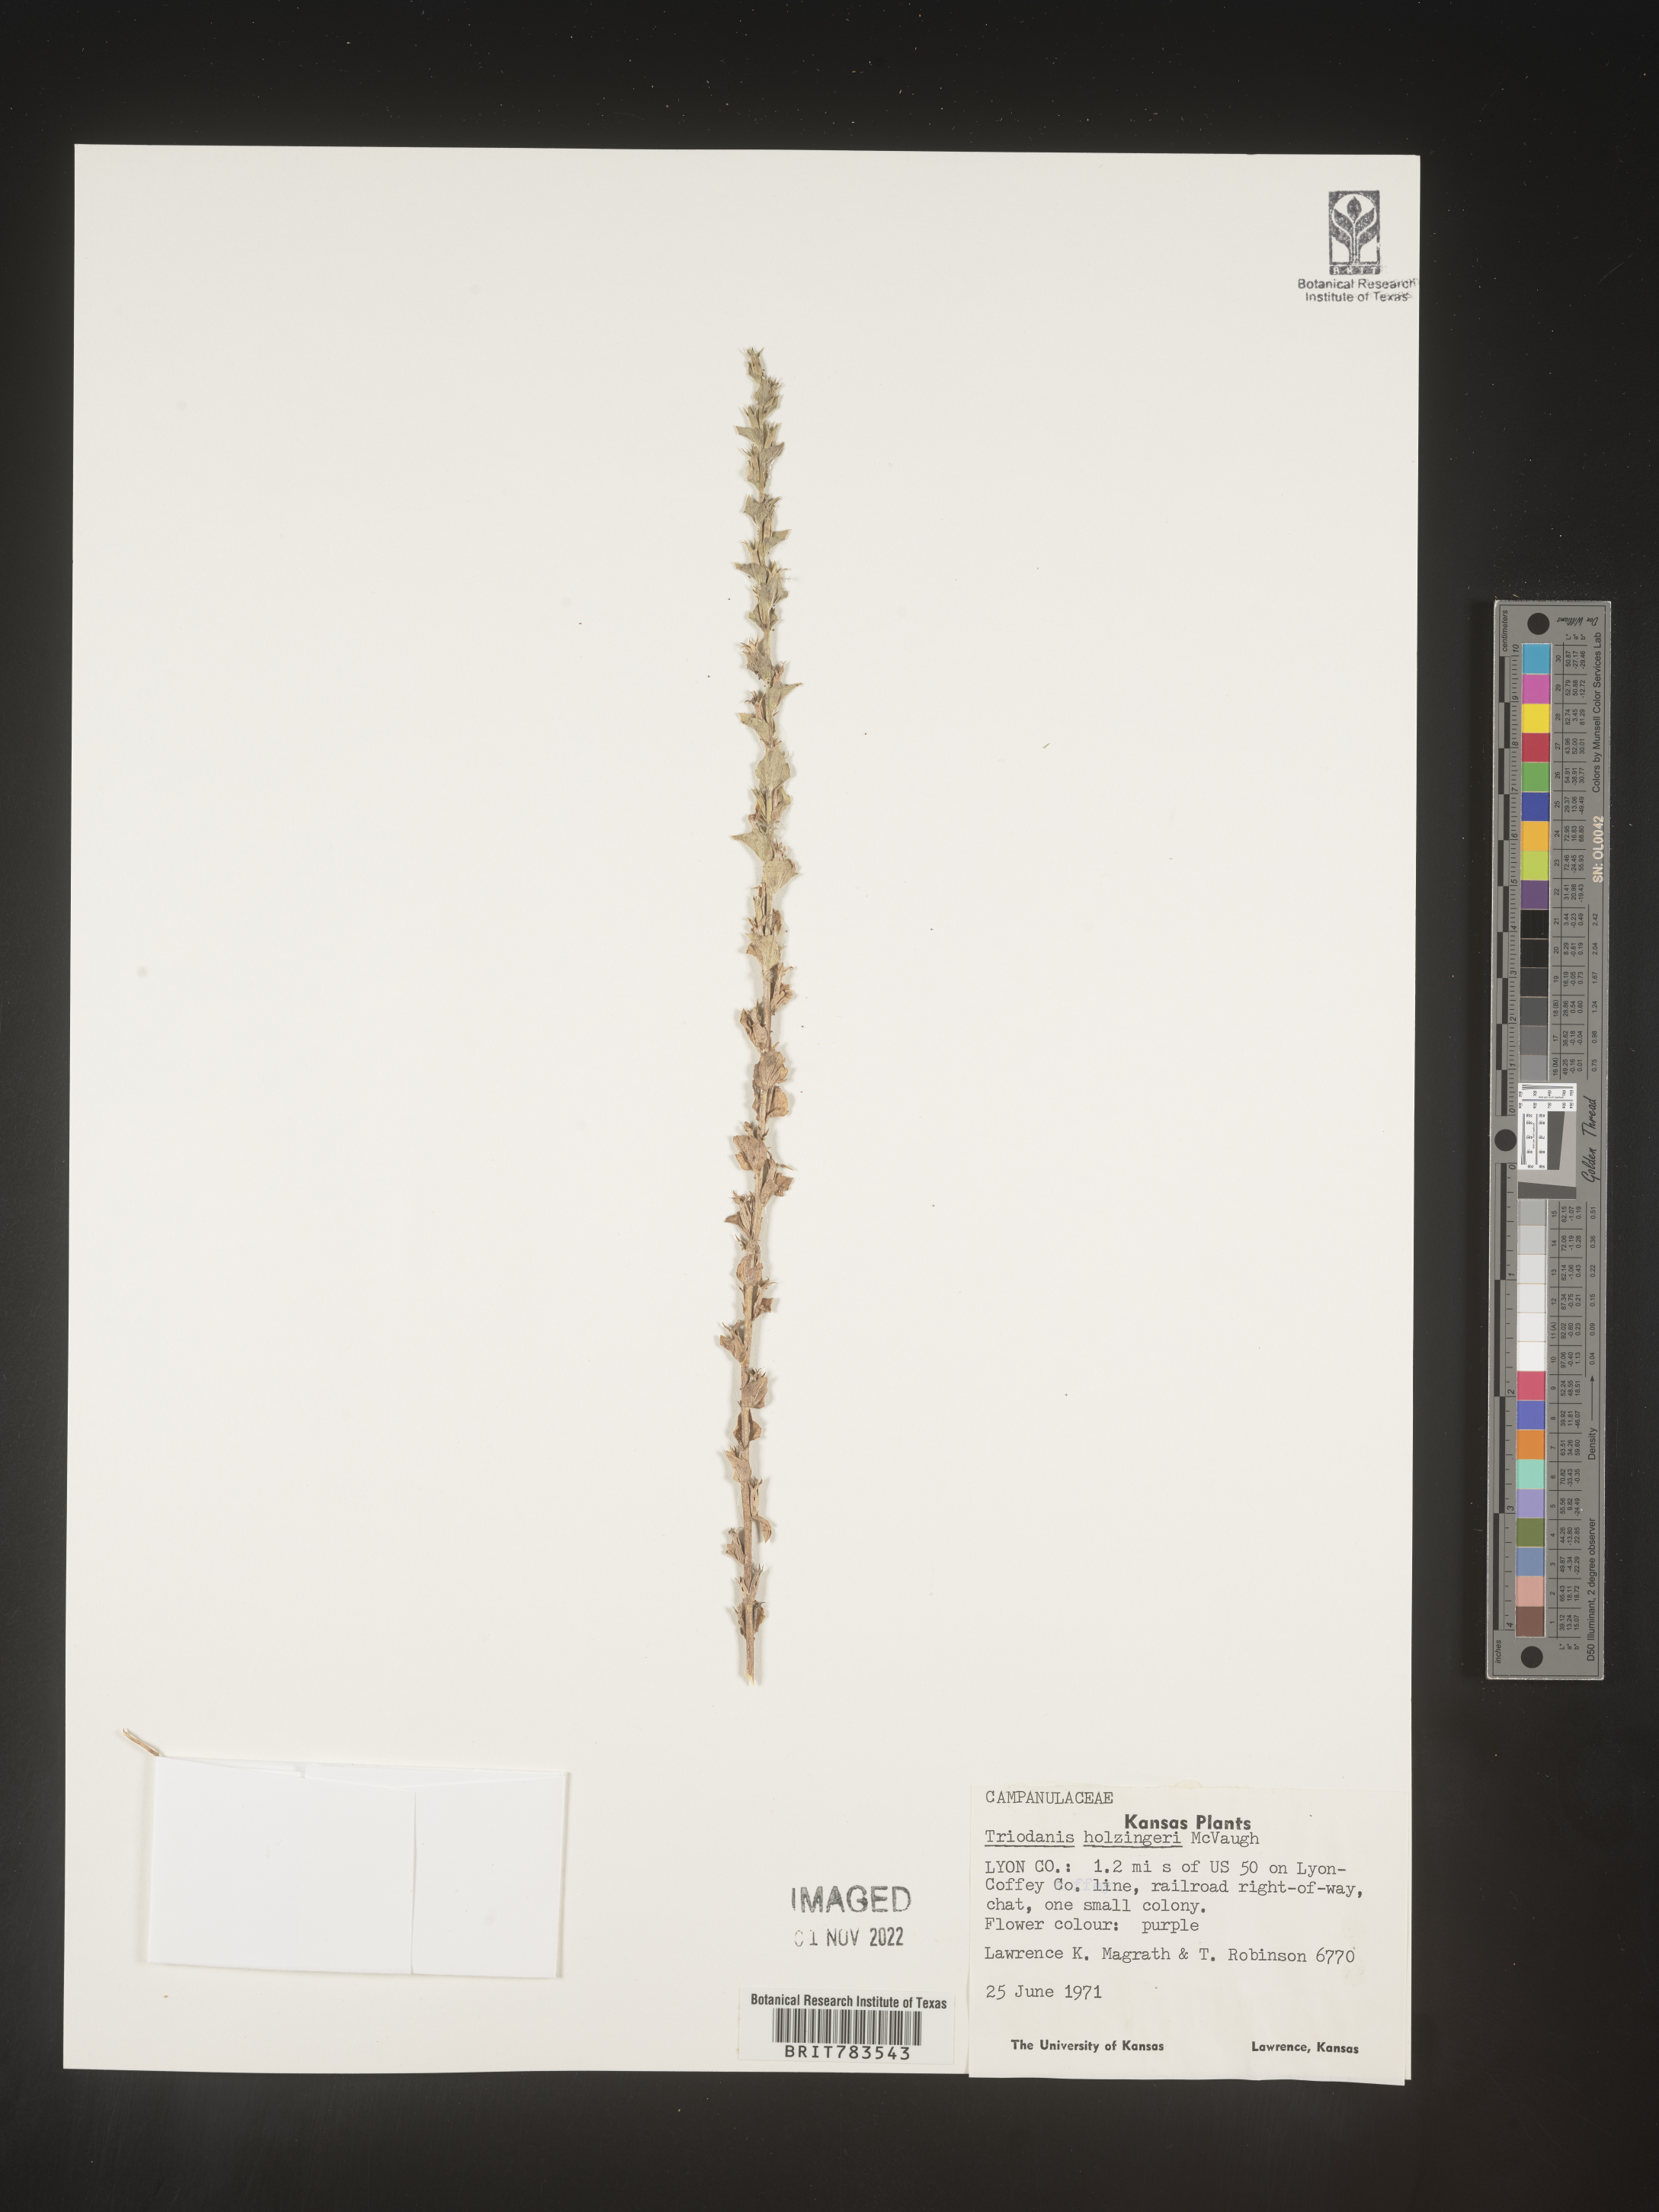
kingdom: Plantae
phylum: Tracheophyta
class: Magnoliopsida
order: Asterales
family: Campanulaceae
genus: Triodanis
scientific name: Triodanis holzingeri
